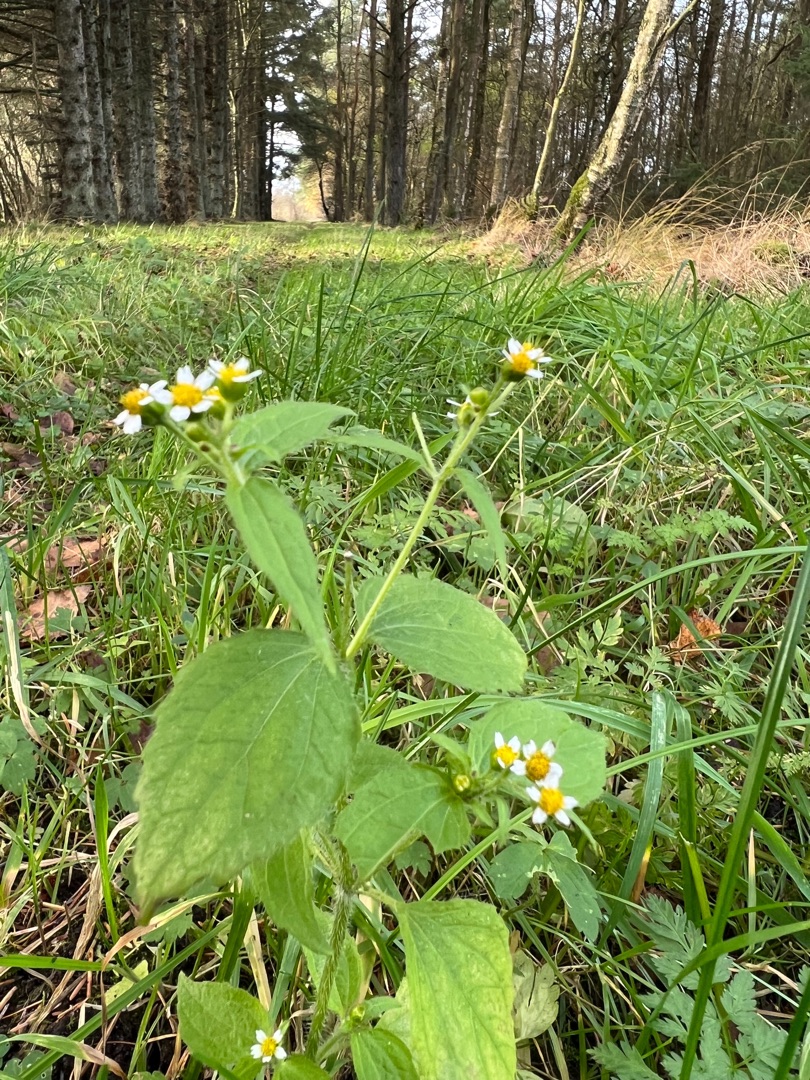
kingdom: Plantae
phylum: Tracheophyta
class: Magnoliopsida
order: Asterales
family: Asteraceae
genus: Galinsoga
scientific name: Galinsoga quadriradiata
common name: Kirtel-kortstråle
